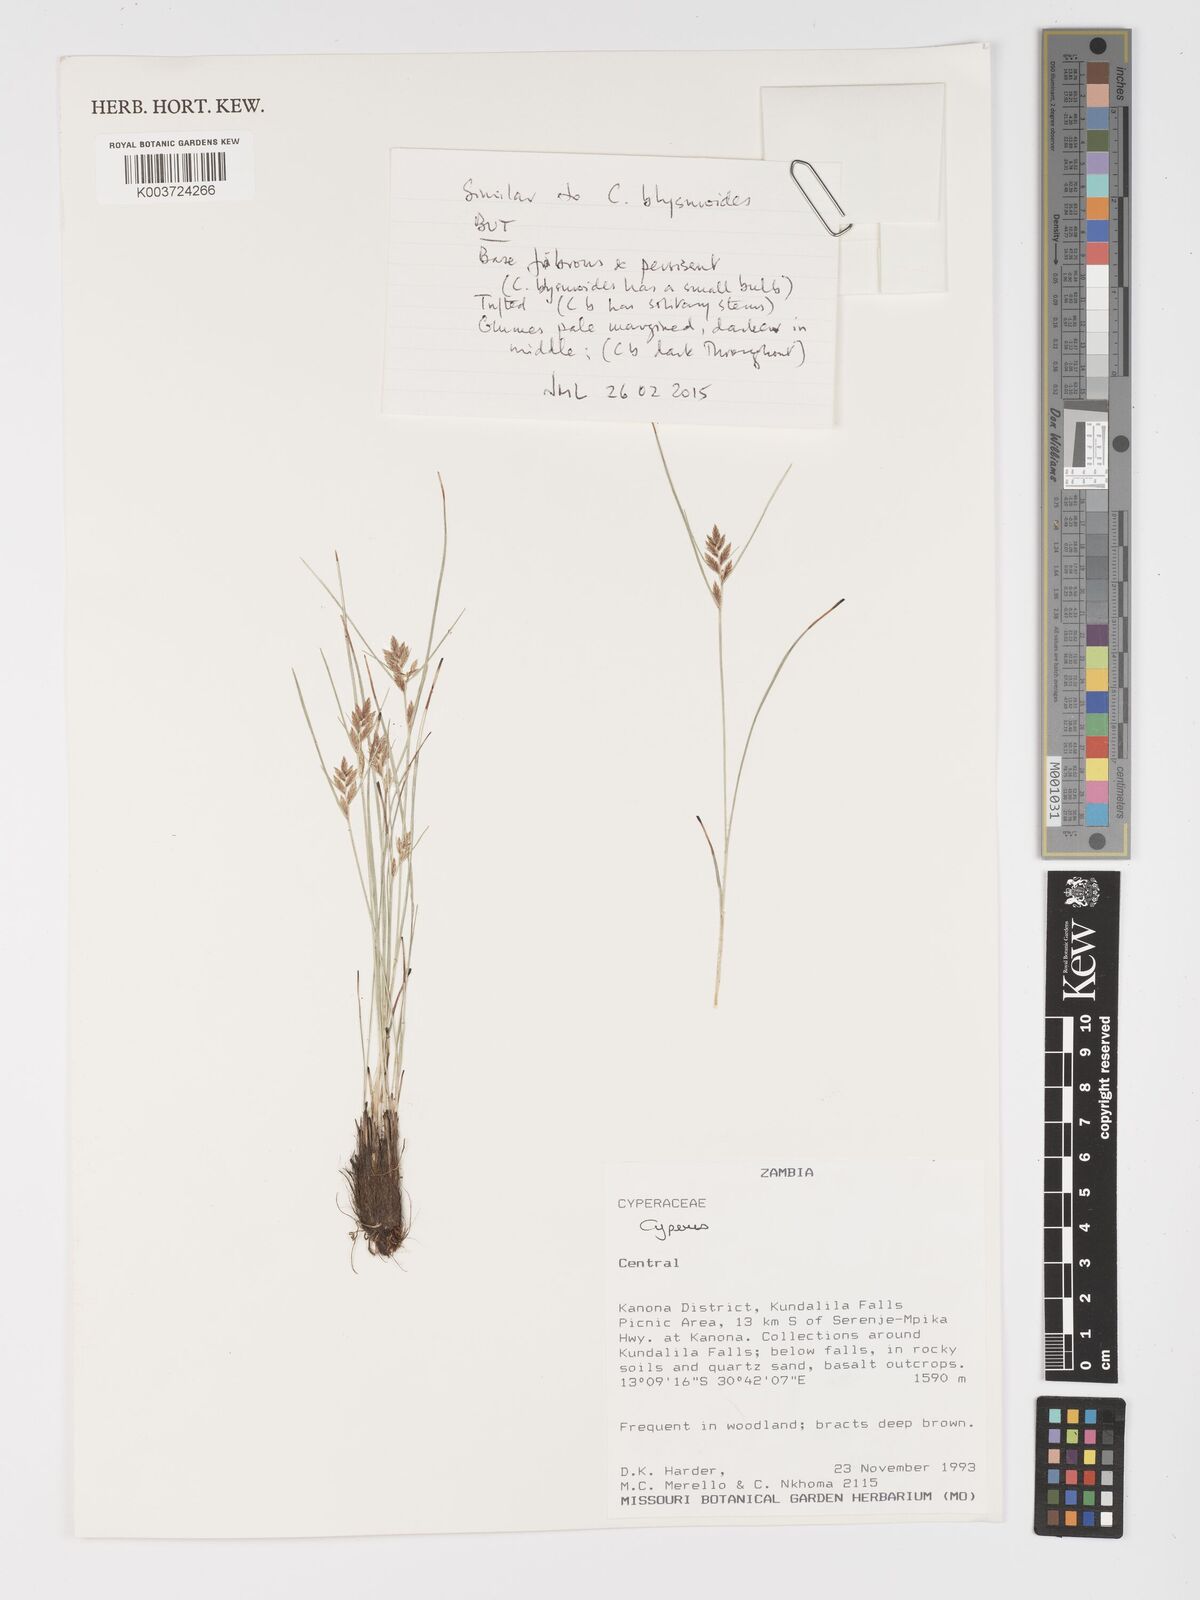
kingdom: Plantae
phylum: Tracheophyta
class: Liliopsida
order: Poales
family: Cyperaceae
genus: Cyperus
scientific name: Cyperus
